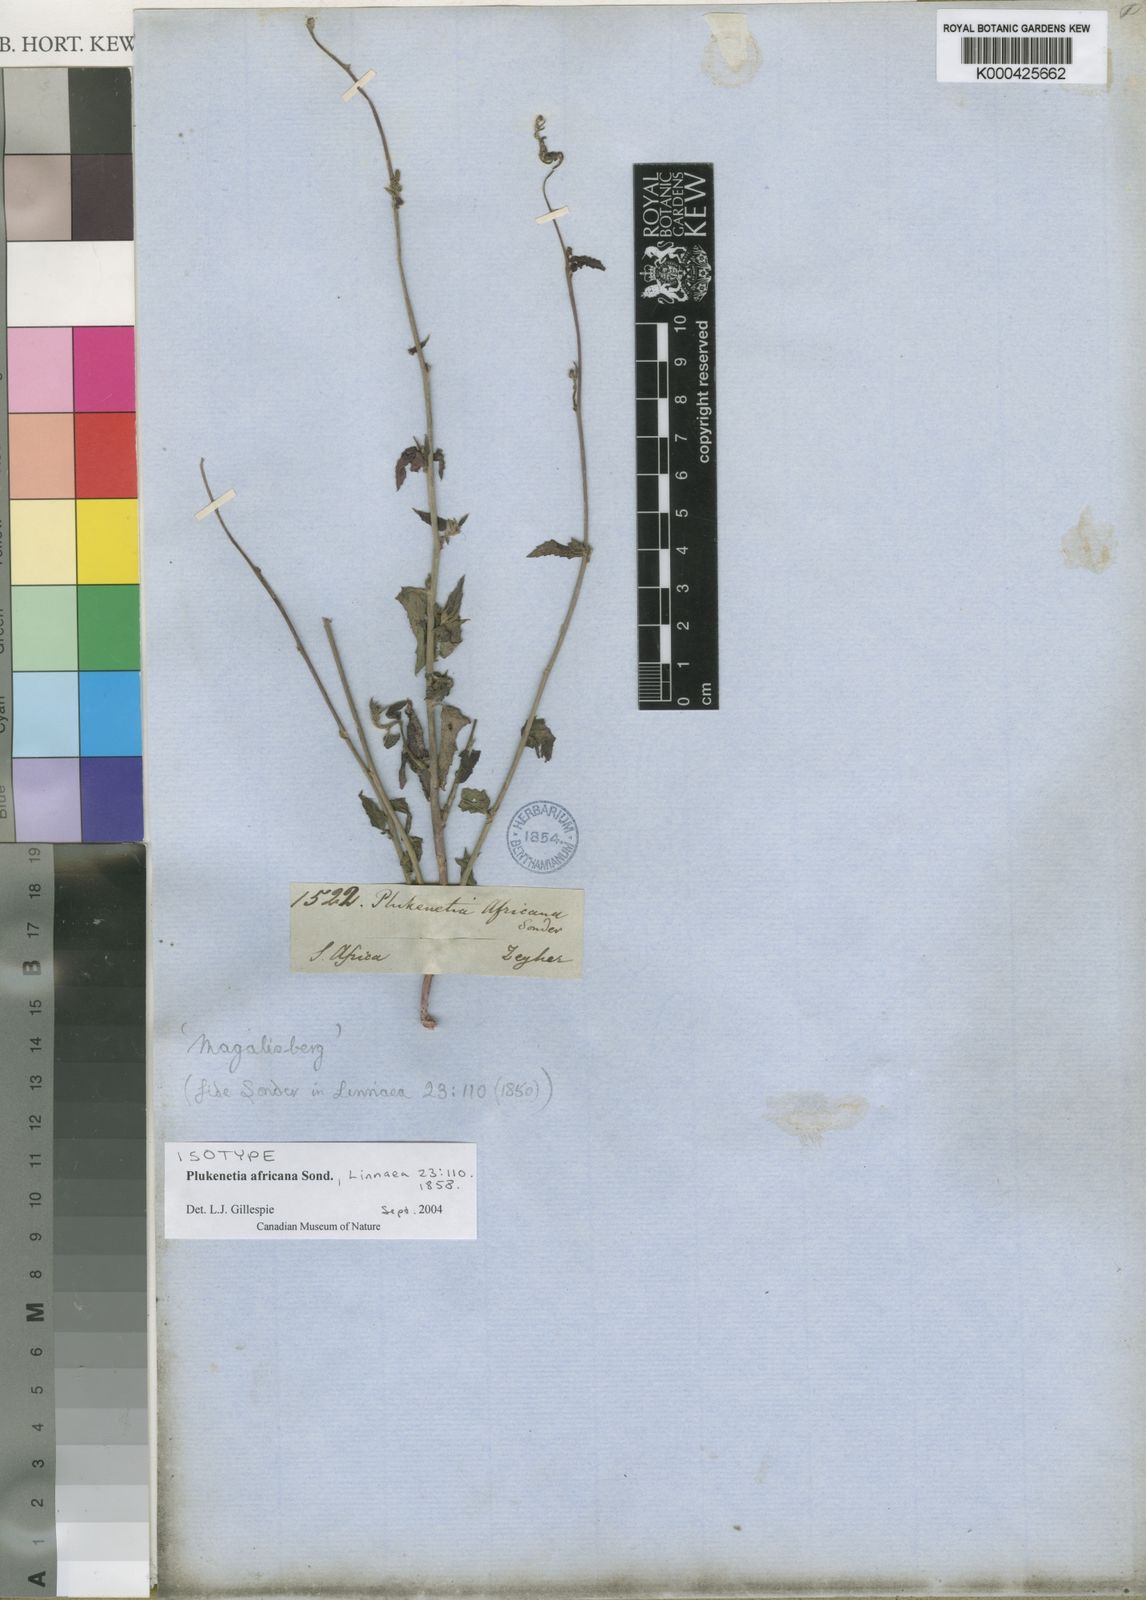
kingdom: Plantae
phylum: Tracheophyta
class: Magnoliopsida
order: Malpighiales
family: Euphorbiaceae
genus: Plukenetia
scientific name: Plukenetia africana
